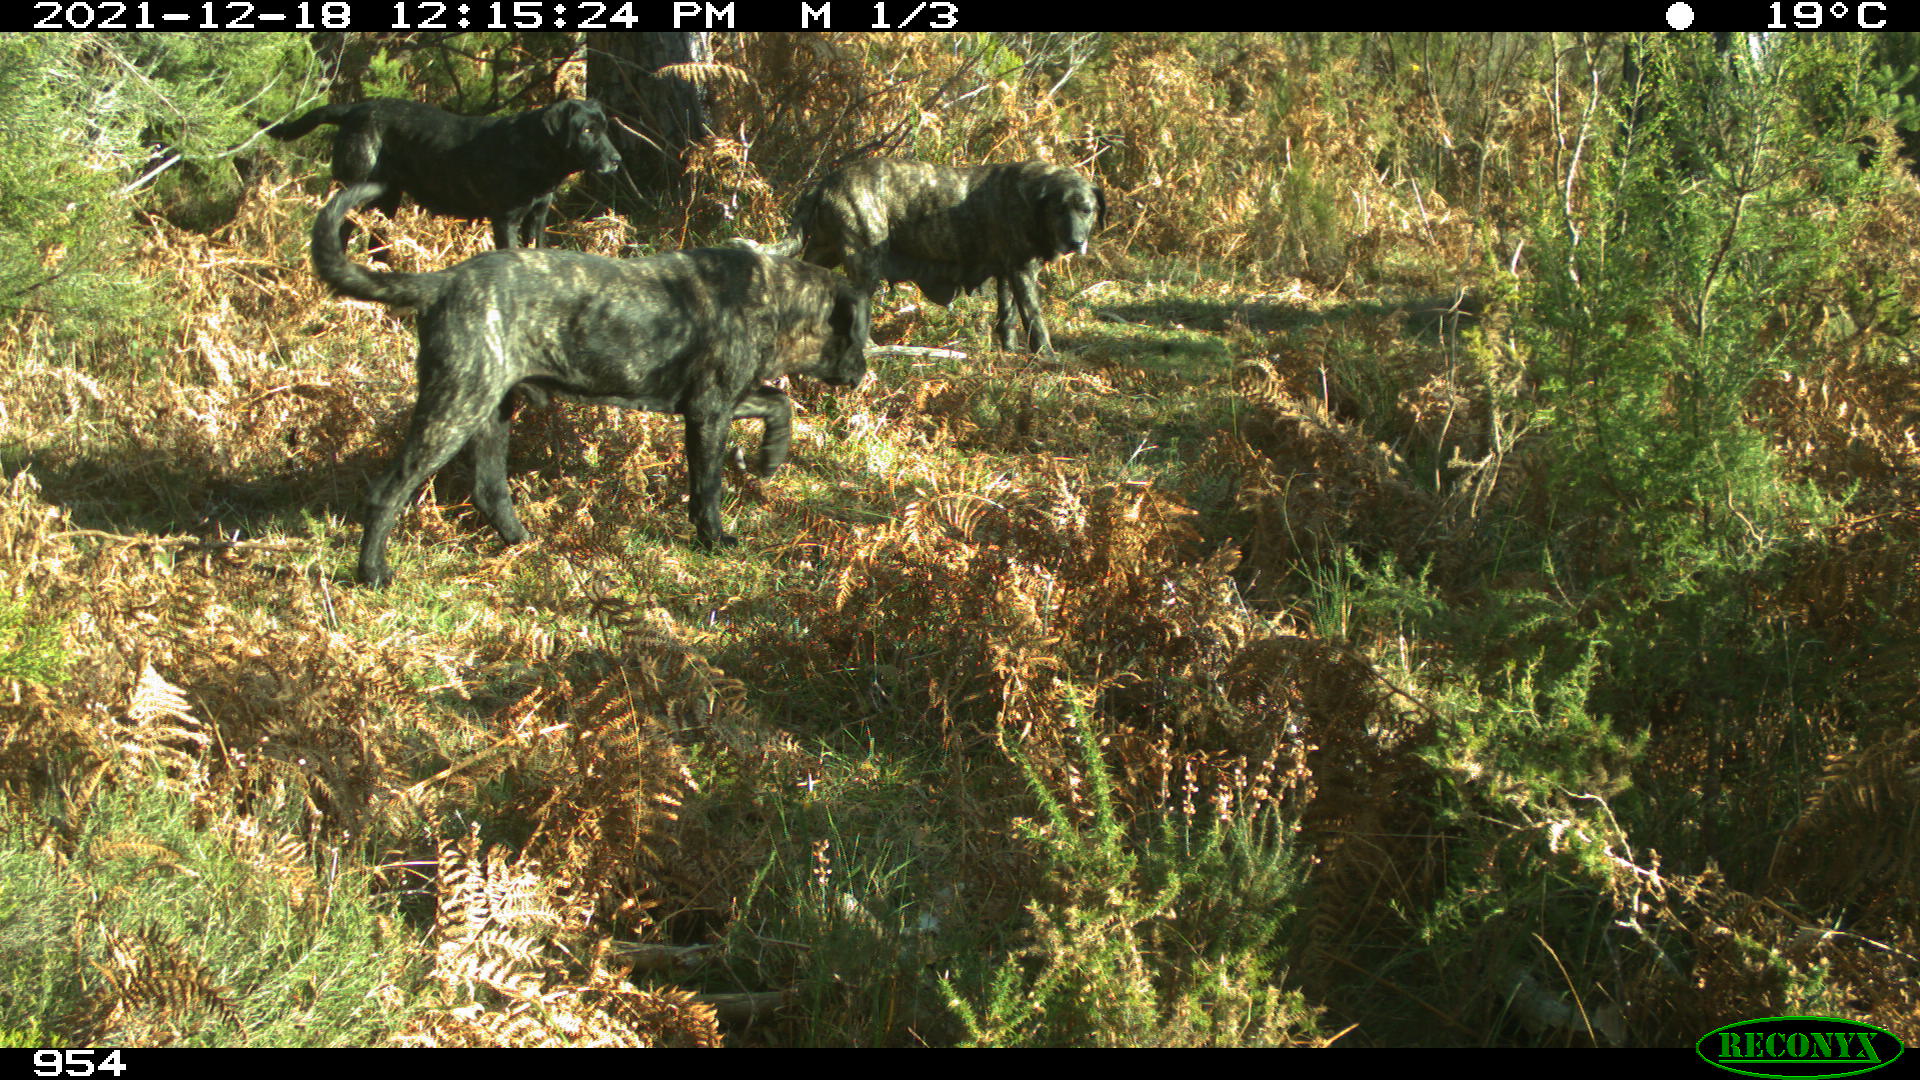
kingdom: Animalia
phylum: Chordata
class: Mammalia
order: Carnivora
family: Canidae
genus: Canis
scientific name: Canis lupus
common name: Gray wolf
